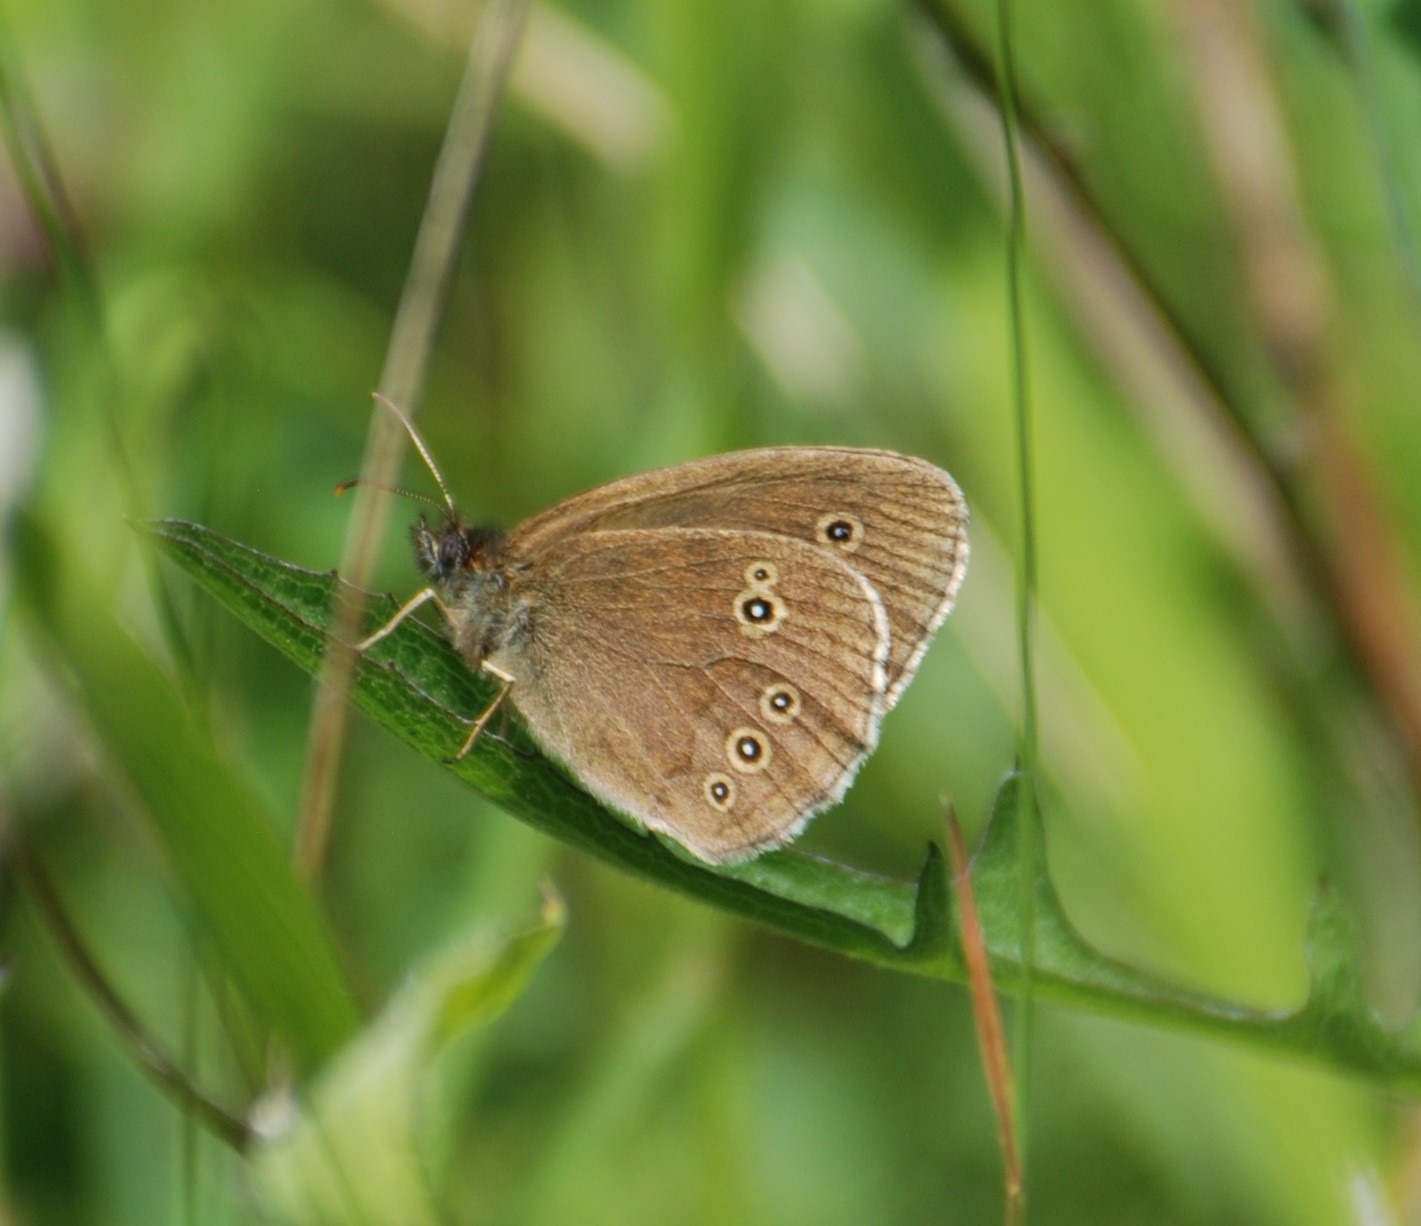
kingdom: Animalia
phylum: Arthropoda
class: Insecta
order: Lepidoptera
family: Nymphalidae
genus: Aphantopus
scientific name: Aphantopus hyperantus
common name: Engrandøje
